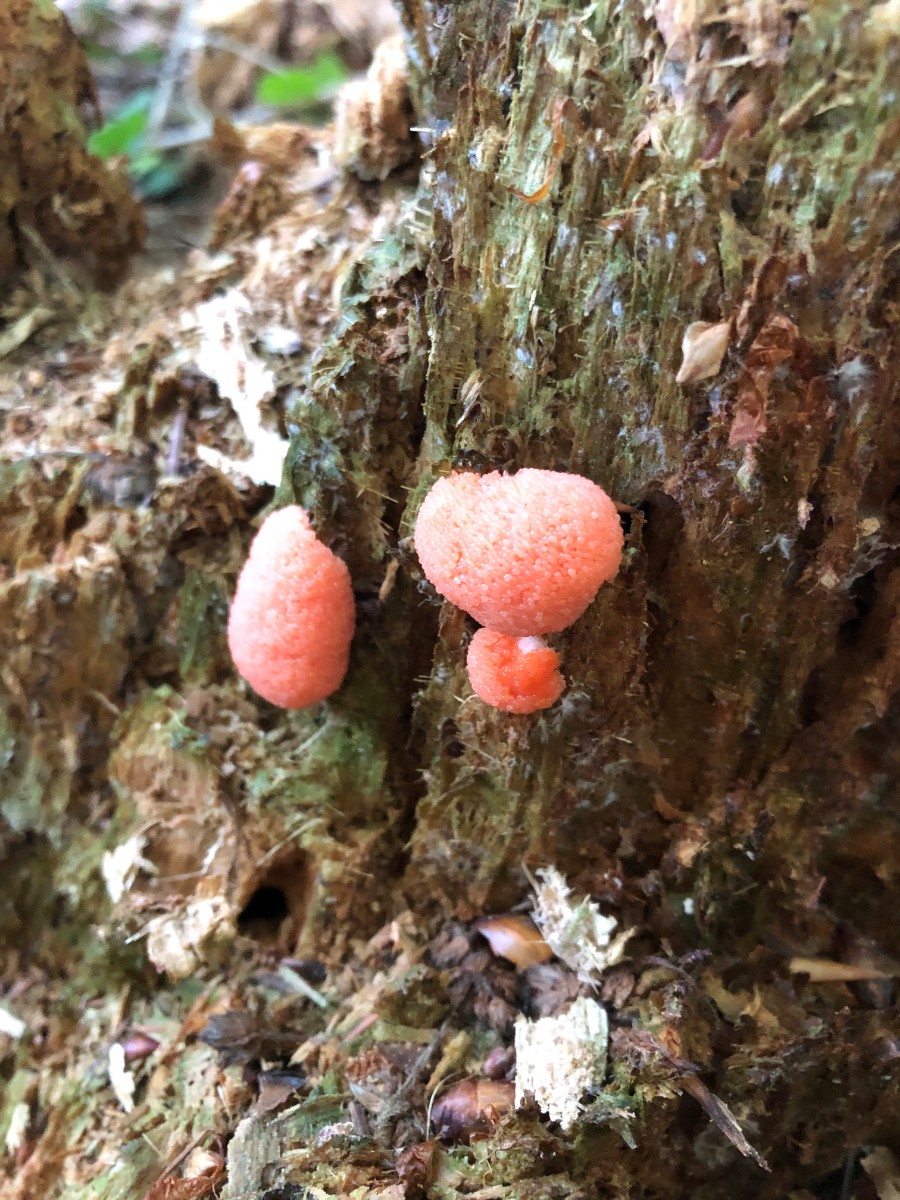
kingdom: Protozoa
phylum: Mycetozoa
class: Myxomycetes
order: Cribrariales
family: Tubiferaceae
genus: Tubifera
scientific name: Tubifera ferruginosa
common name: kanel-støvrør
